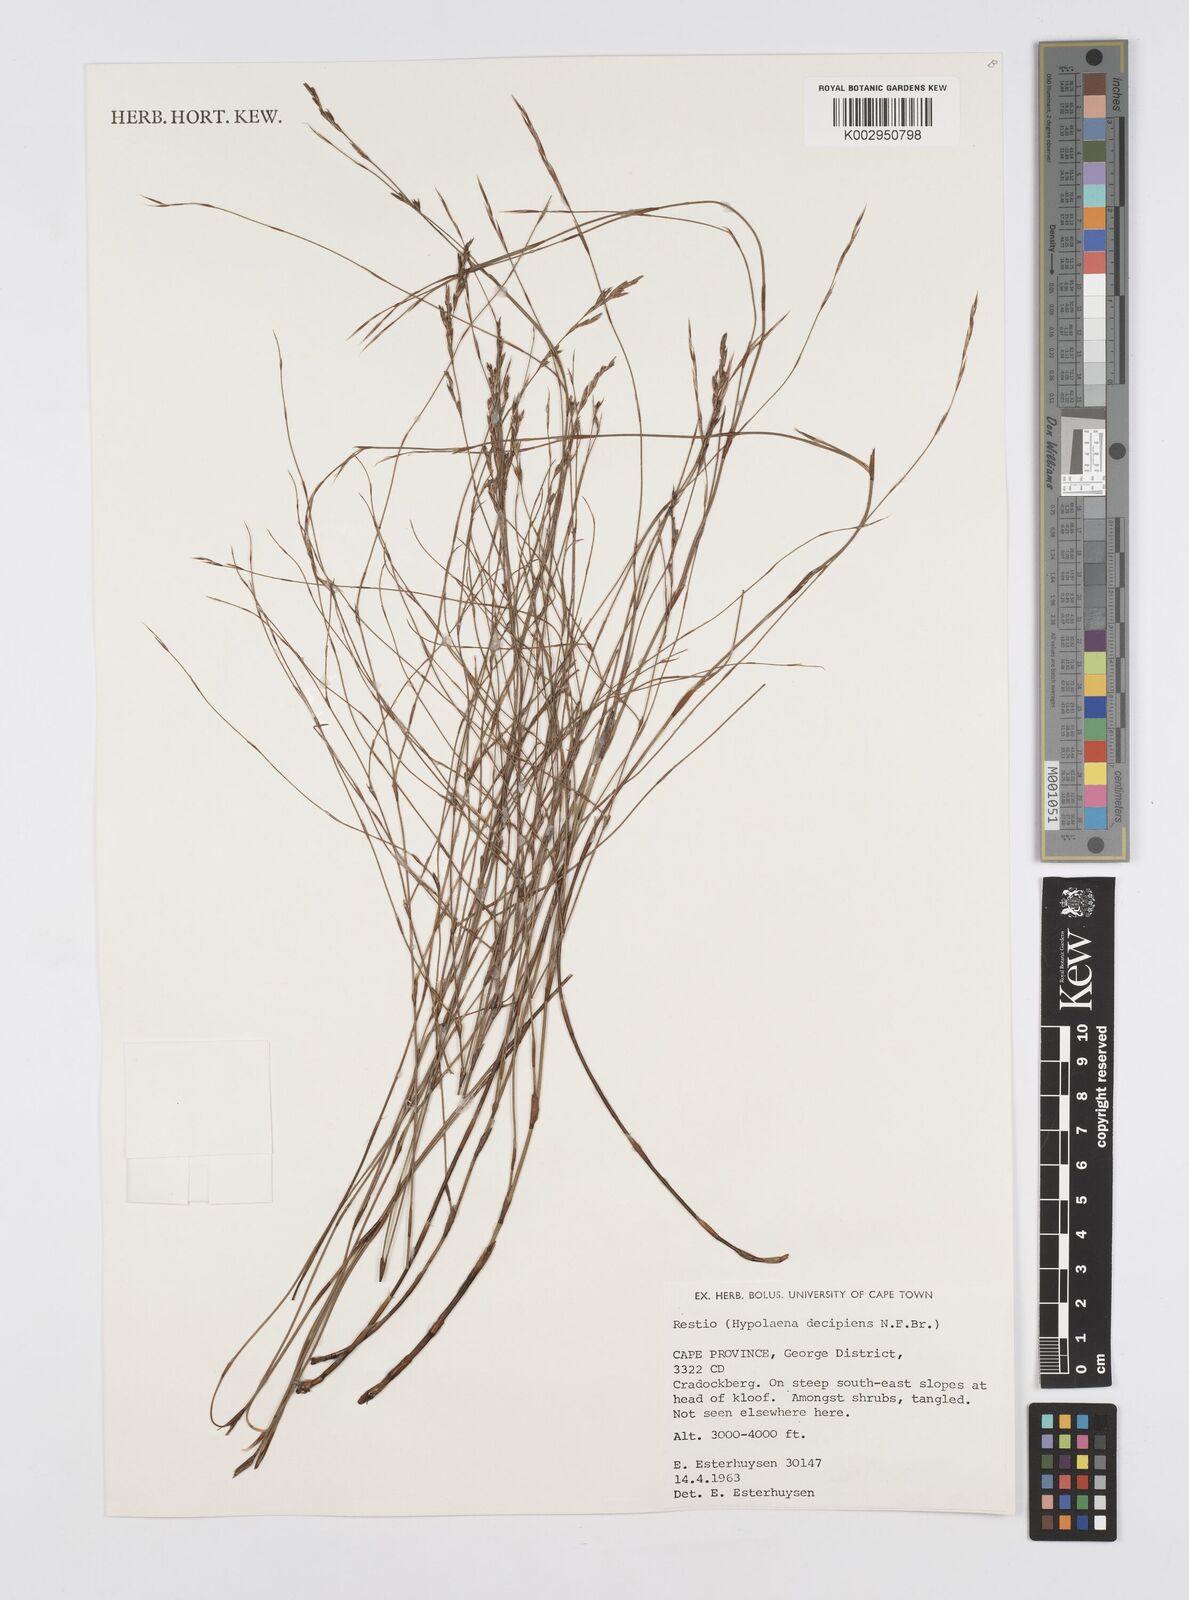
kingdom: Plantae
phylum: Tracheophyta
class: Liliopsida
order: Poales
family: Restionaceae
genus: Restio
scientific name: Restio decipiens
